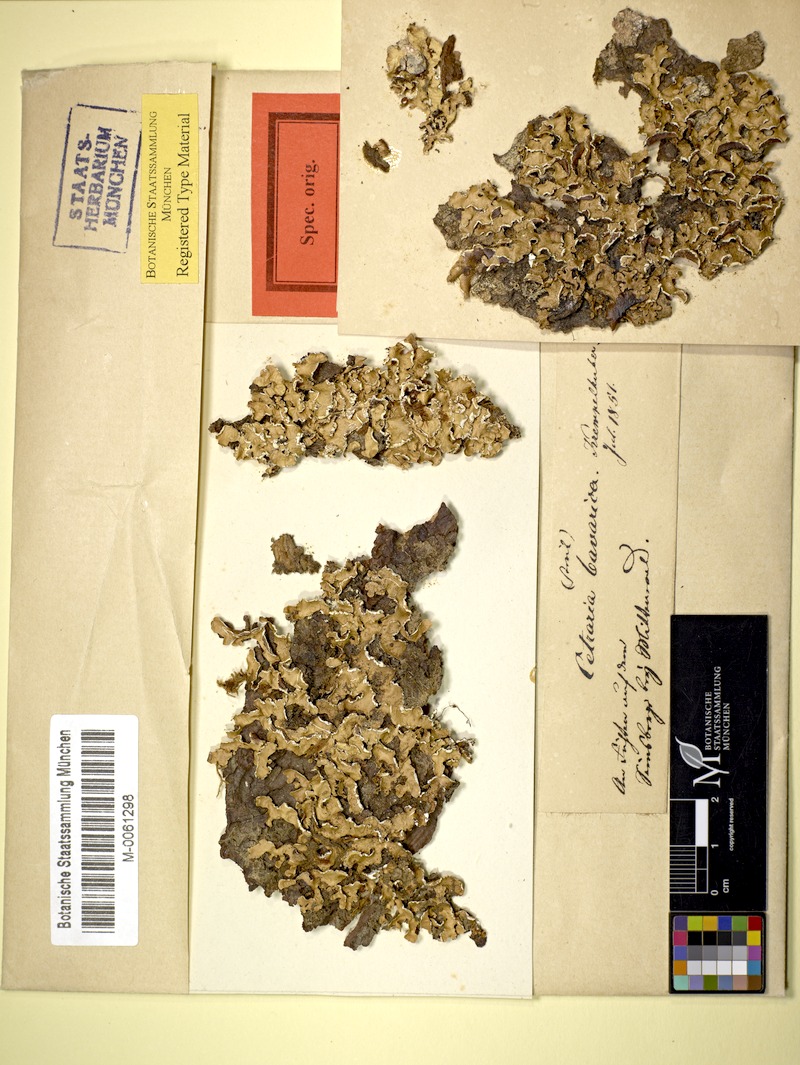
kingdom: Fungi
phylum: Ascomycota
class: Lecanoromycetes
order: Lecanorales
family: Parmeliaceae
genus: Usnocetraria
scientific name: Usnocetraria oakesiana
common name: Yellow ribbon lichen
